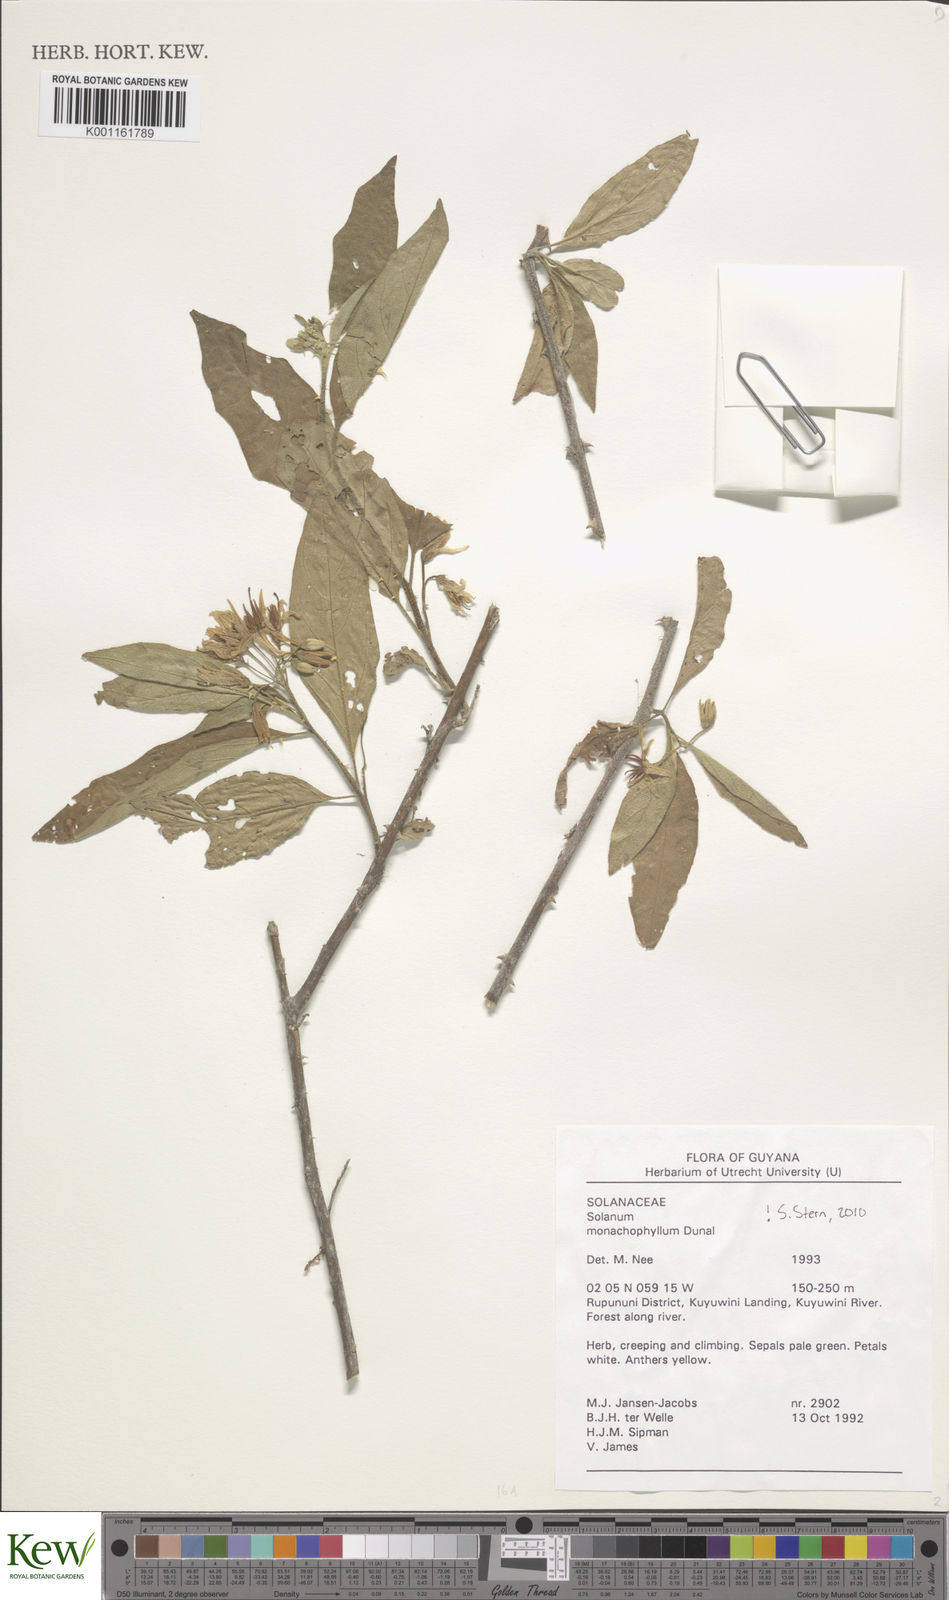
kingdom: Plantae
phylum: Tracheophyta
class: Magnoliopsida
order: Solanales
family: Solanaceae
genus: Solanum
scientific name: Solanum monachophyllum
